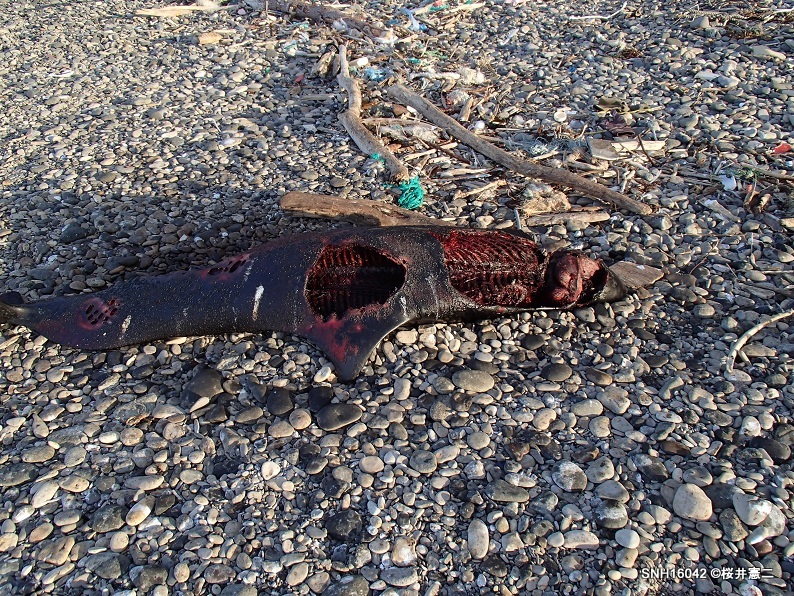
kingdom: Animalia
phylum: Chordata
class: Mammalia
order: Cetacea
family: Phocoenidae
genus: Phocoenoides
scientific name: Phocoenoides dalli
